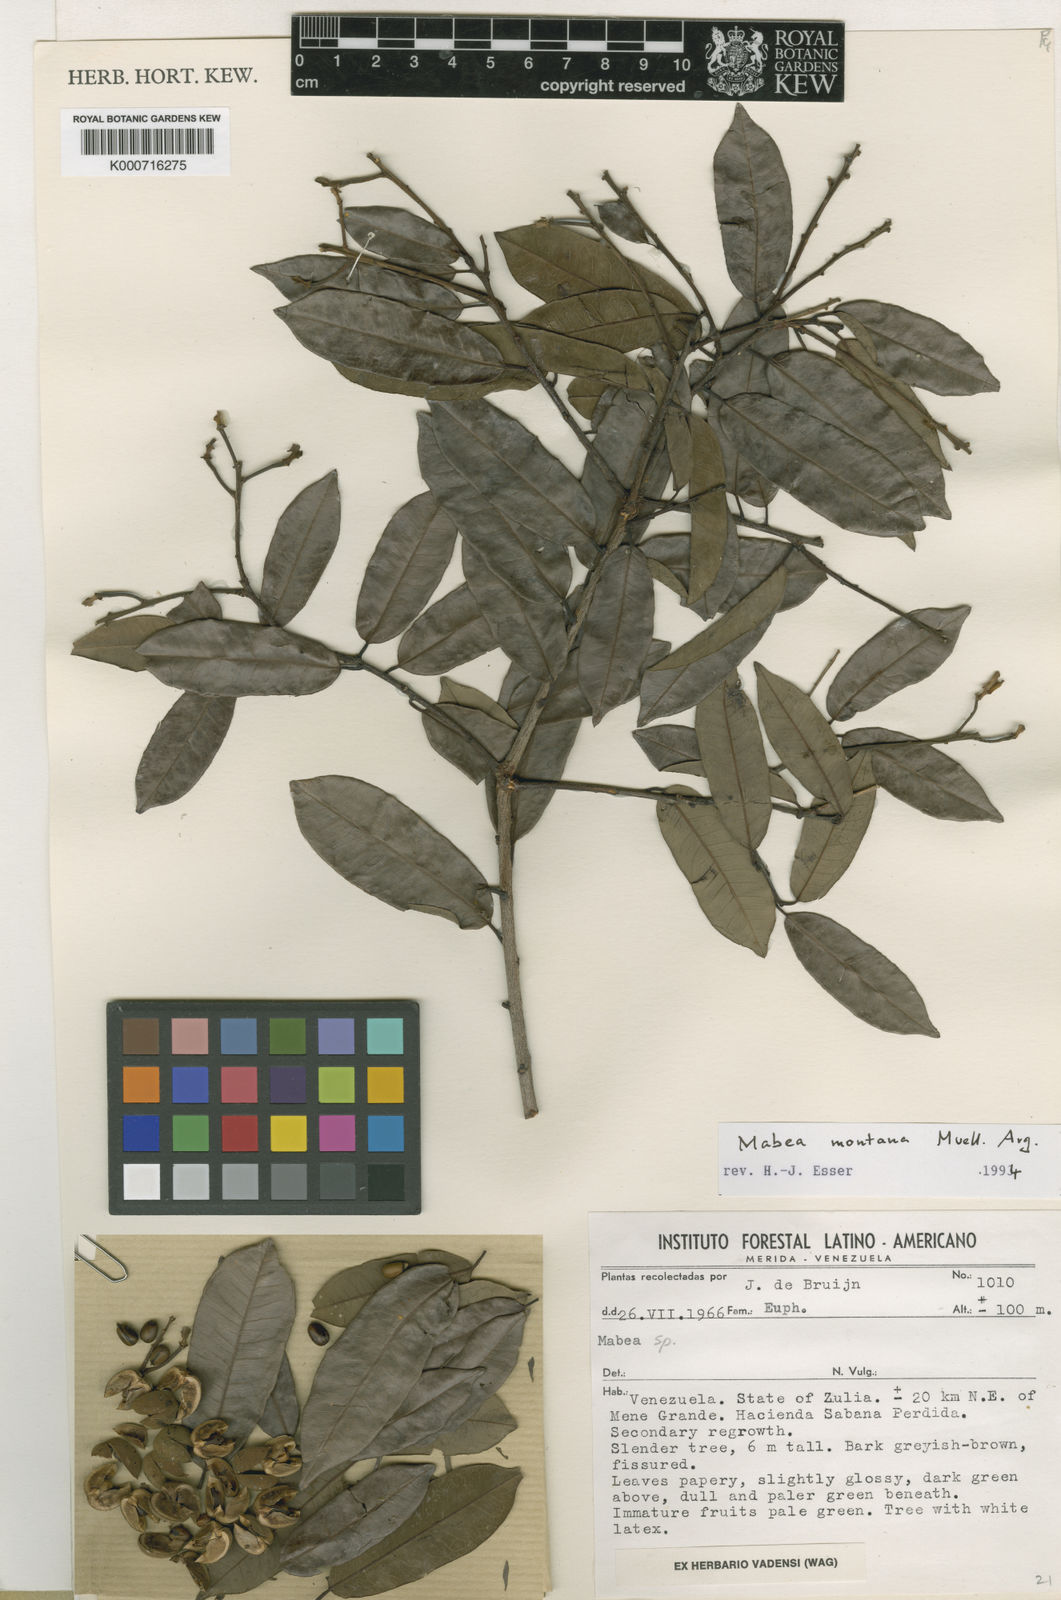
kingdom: Plantae
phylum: Tracheophyta
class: Magnoliopsida
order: Malpighiales
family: Euphorbiaceae
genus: Mabea
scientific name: Mabea
